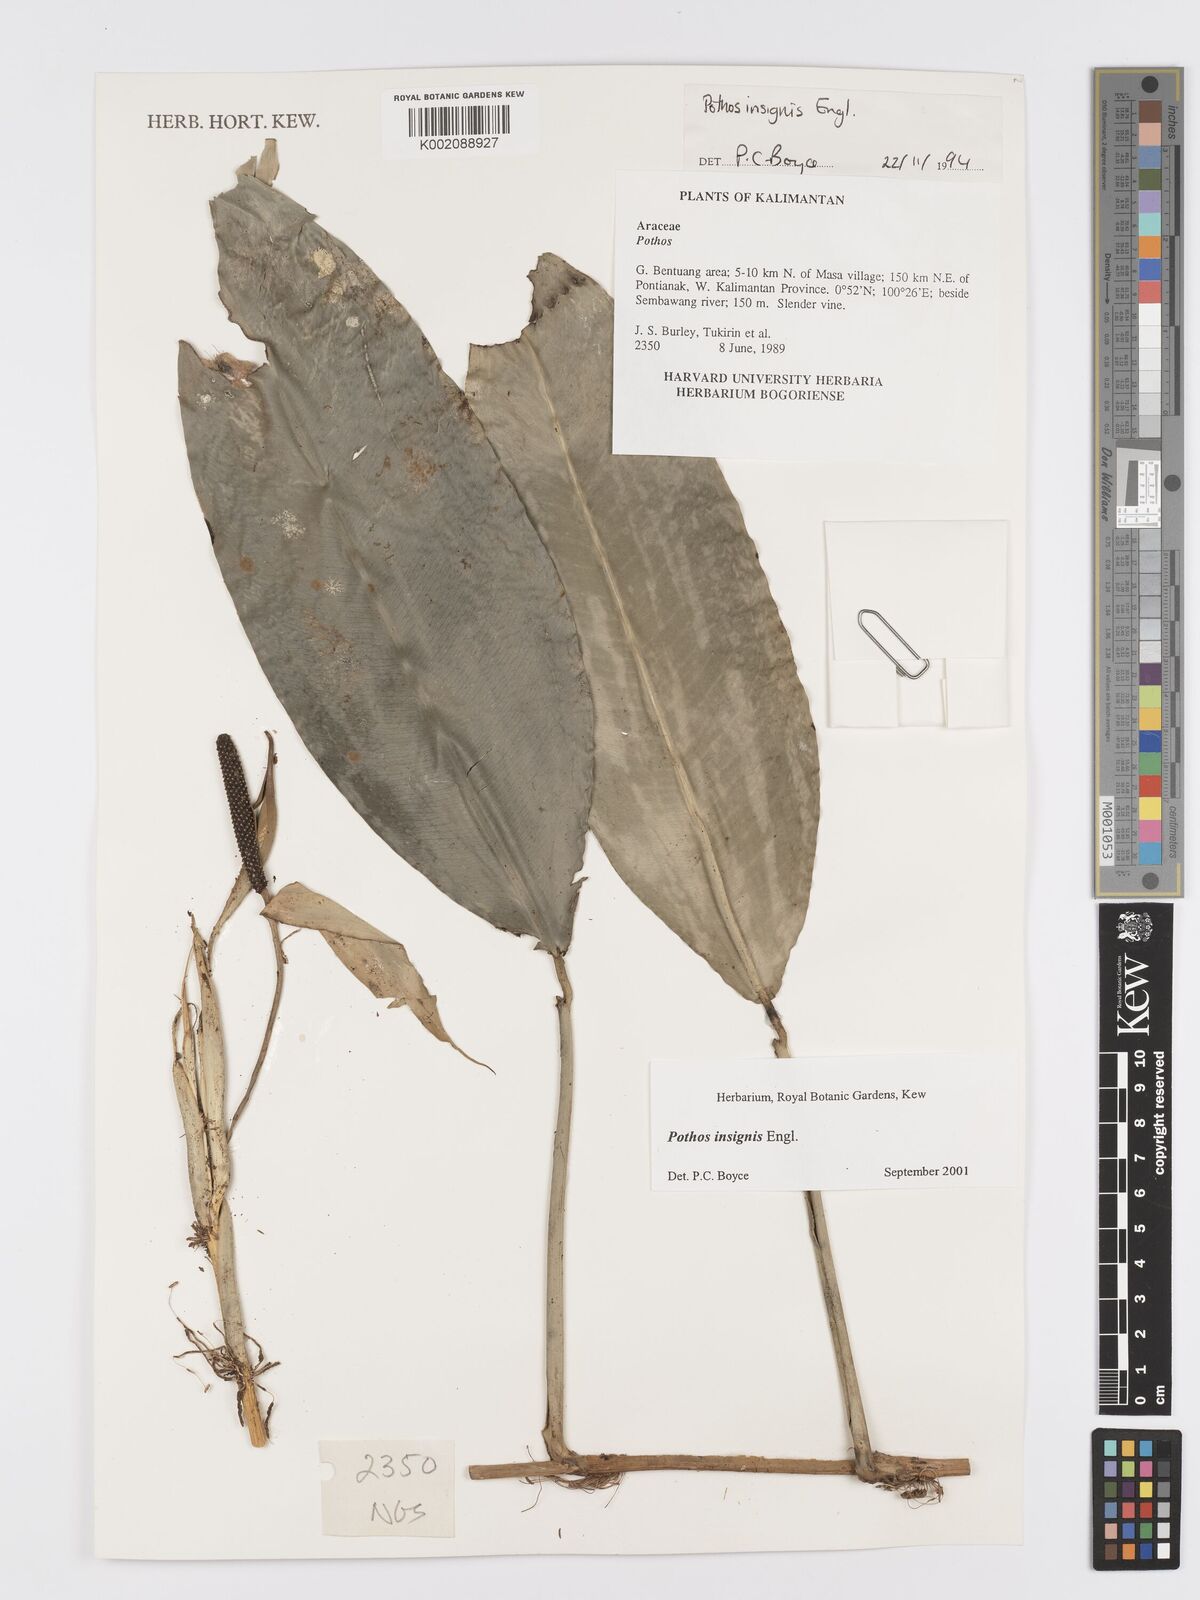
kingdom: Plantae
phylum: Tracheophyta
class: Liliopsida
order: Alismatales
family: Araceae
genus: Pothos
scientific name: Pothos insignis
